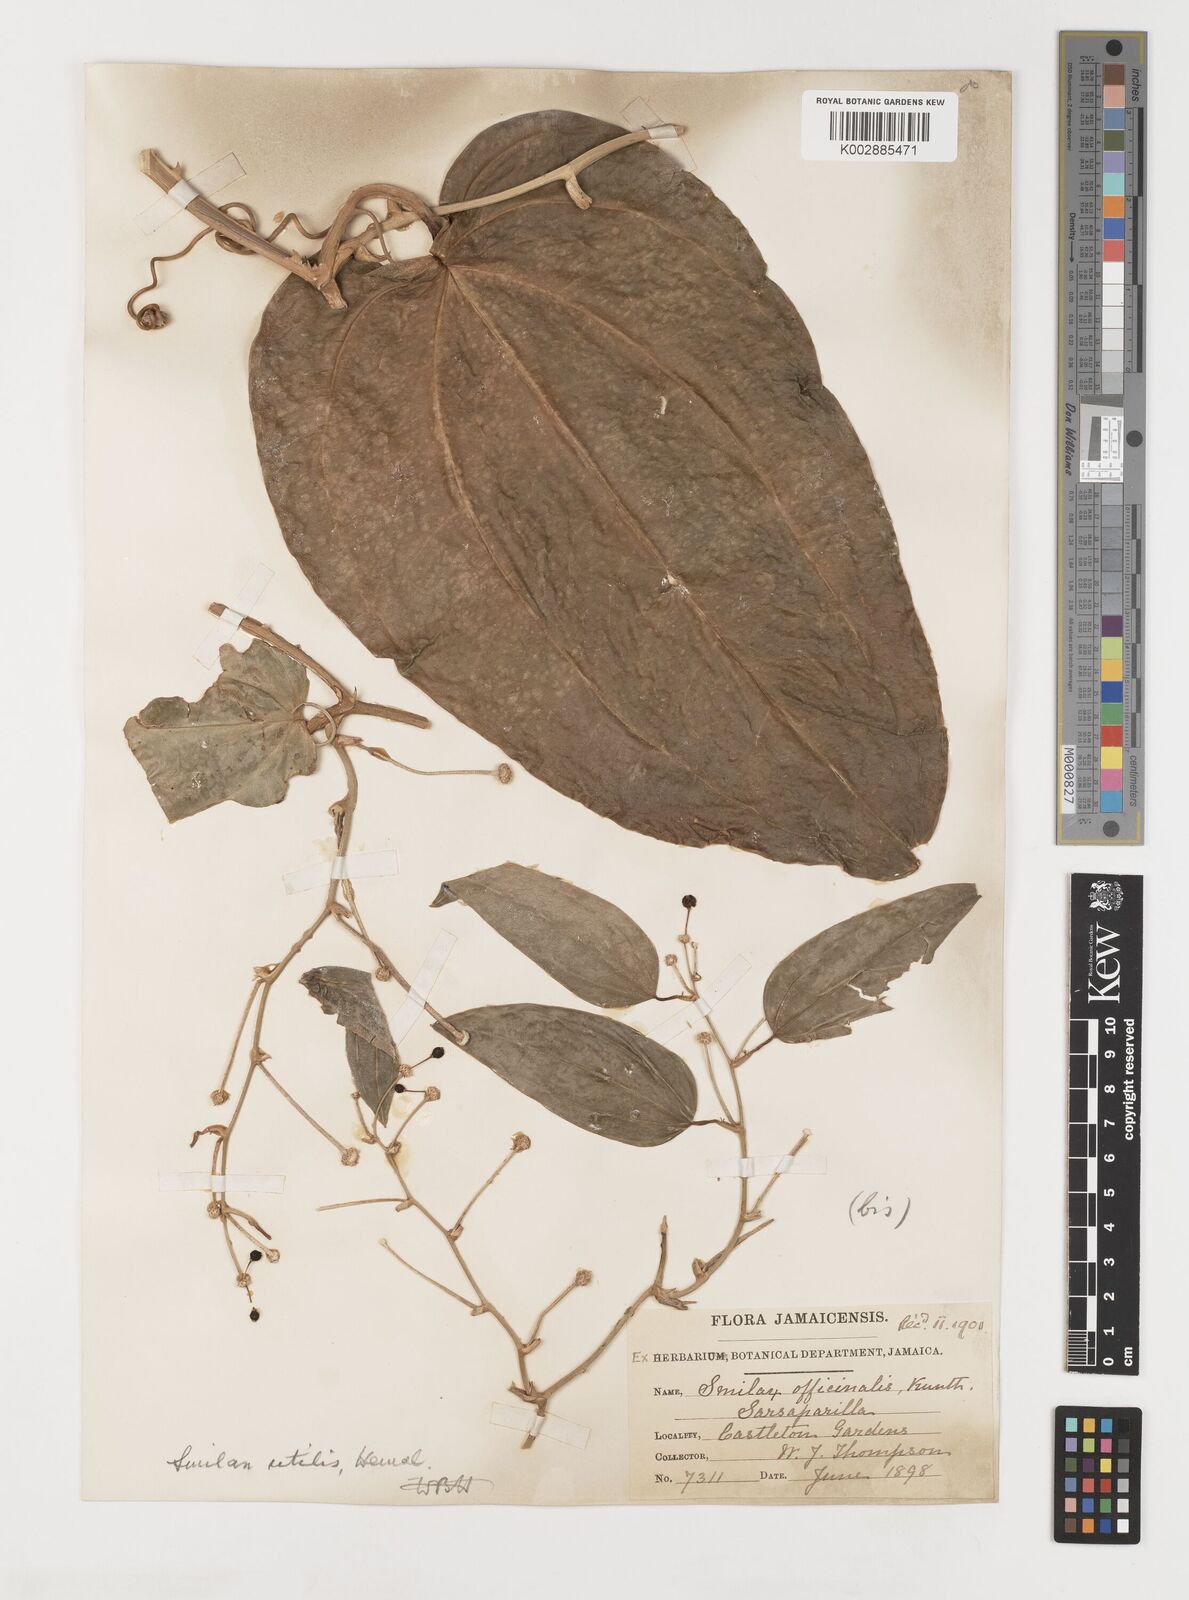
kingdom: Plantae
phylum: Tracheophyta
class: Liliopsida
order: Liliales
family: Smilacaceae
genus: Smilax
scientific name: Smilax ornata
